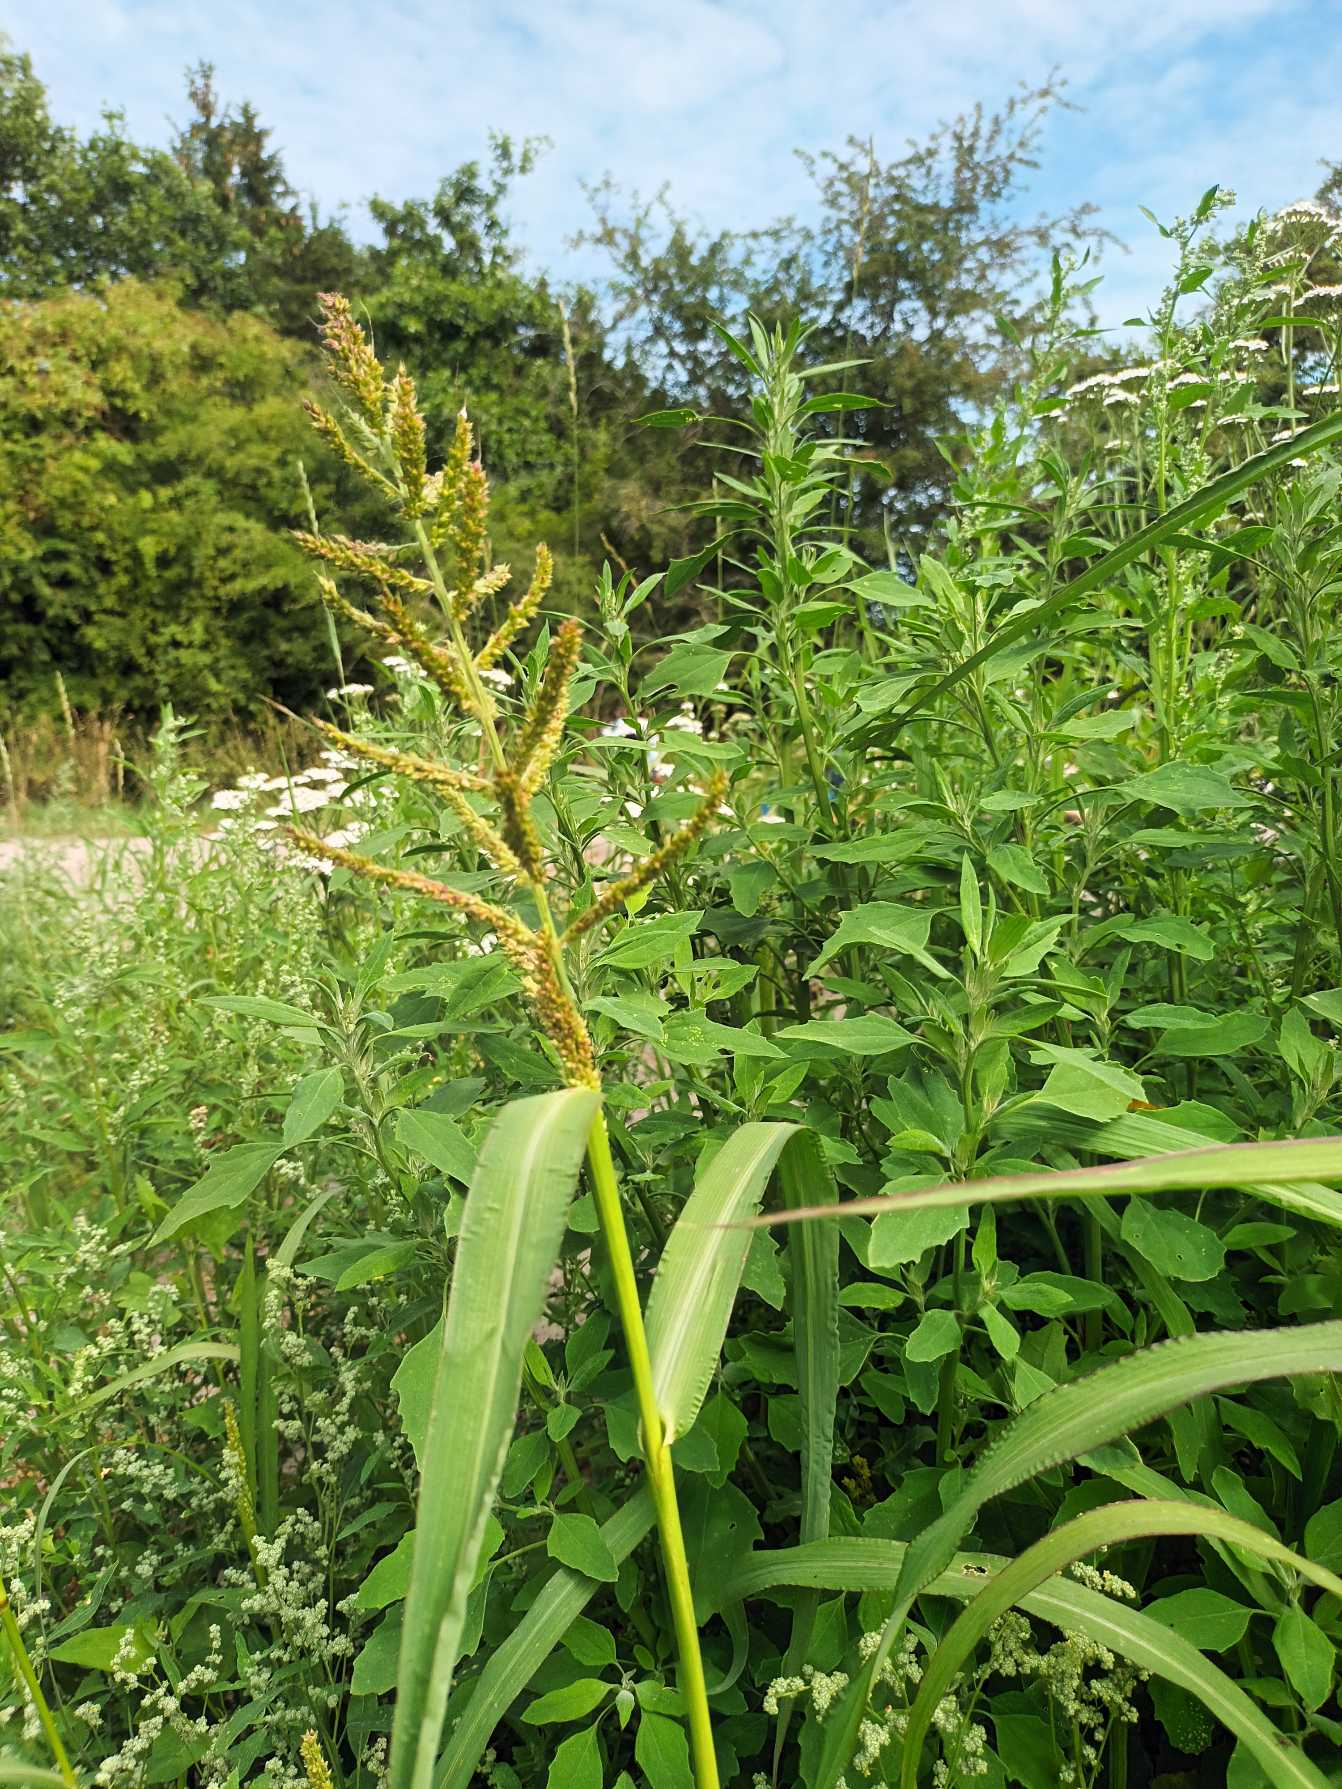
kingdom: Plantae
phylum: Tracheophyta
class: Liliopsida
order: Poales
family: Poaceae
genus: Echinochloa
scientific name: Echinochloa crus-galli
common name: Almindelig hanespore
